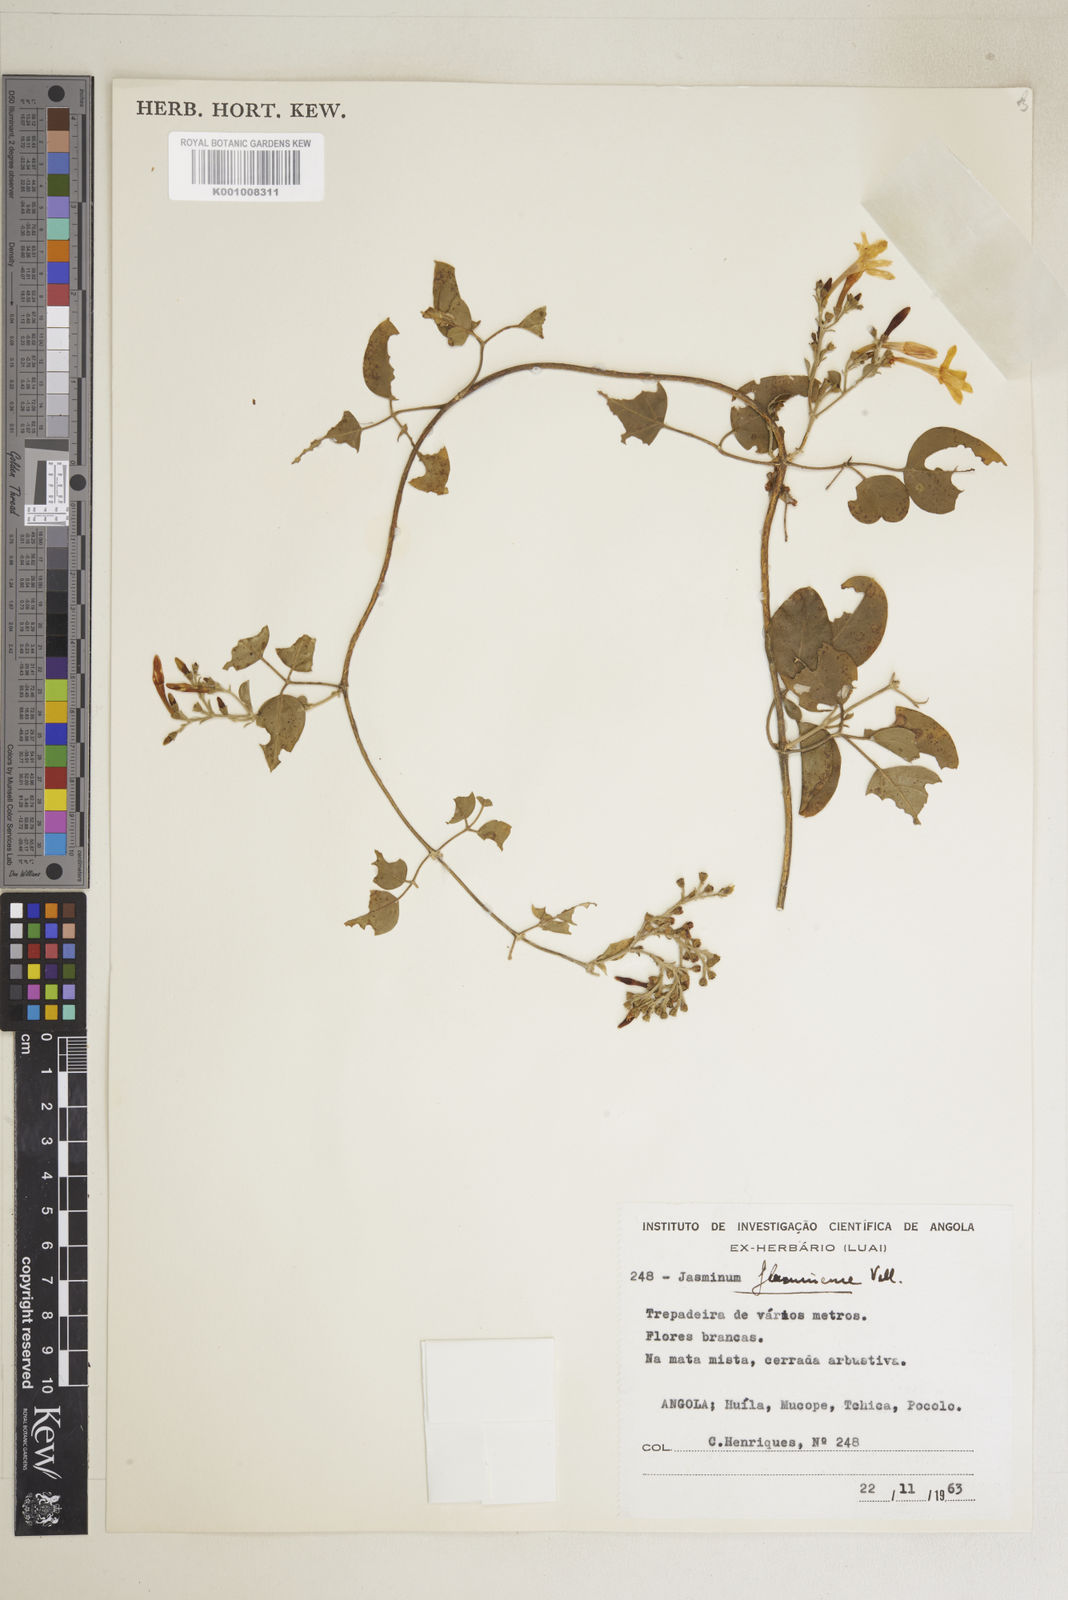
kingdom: Plantae
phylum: Tracheophyta
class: Magnoliopsida
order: Lamiales
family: Oleaceae
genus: Jasminum
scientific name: Jasminum fluminense
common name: Brazilian jasmine
